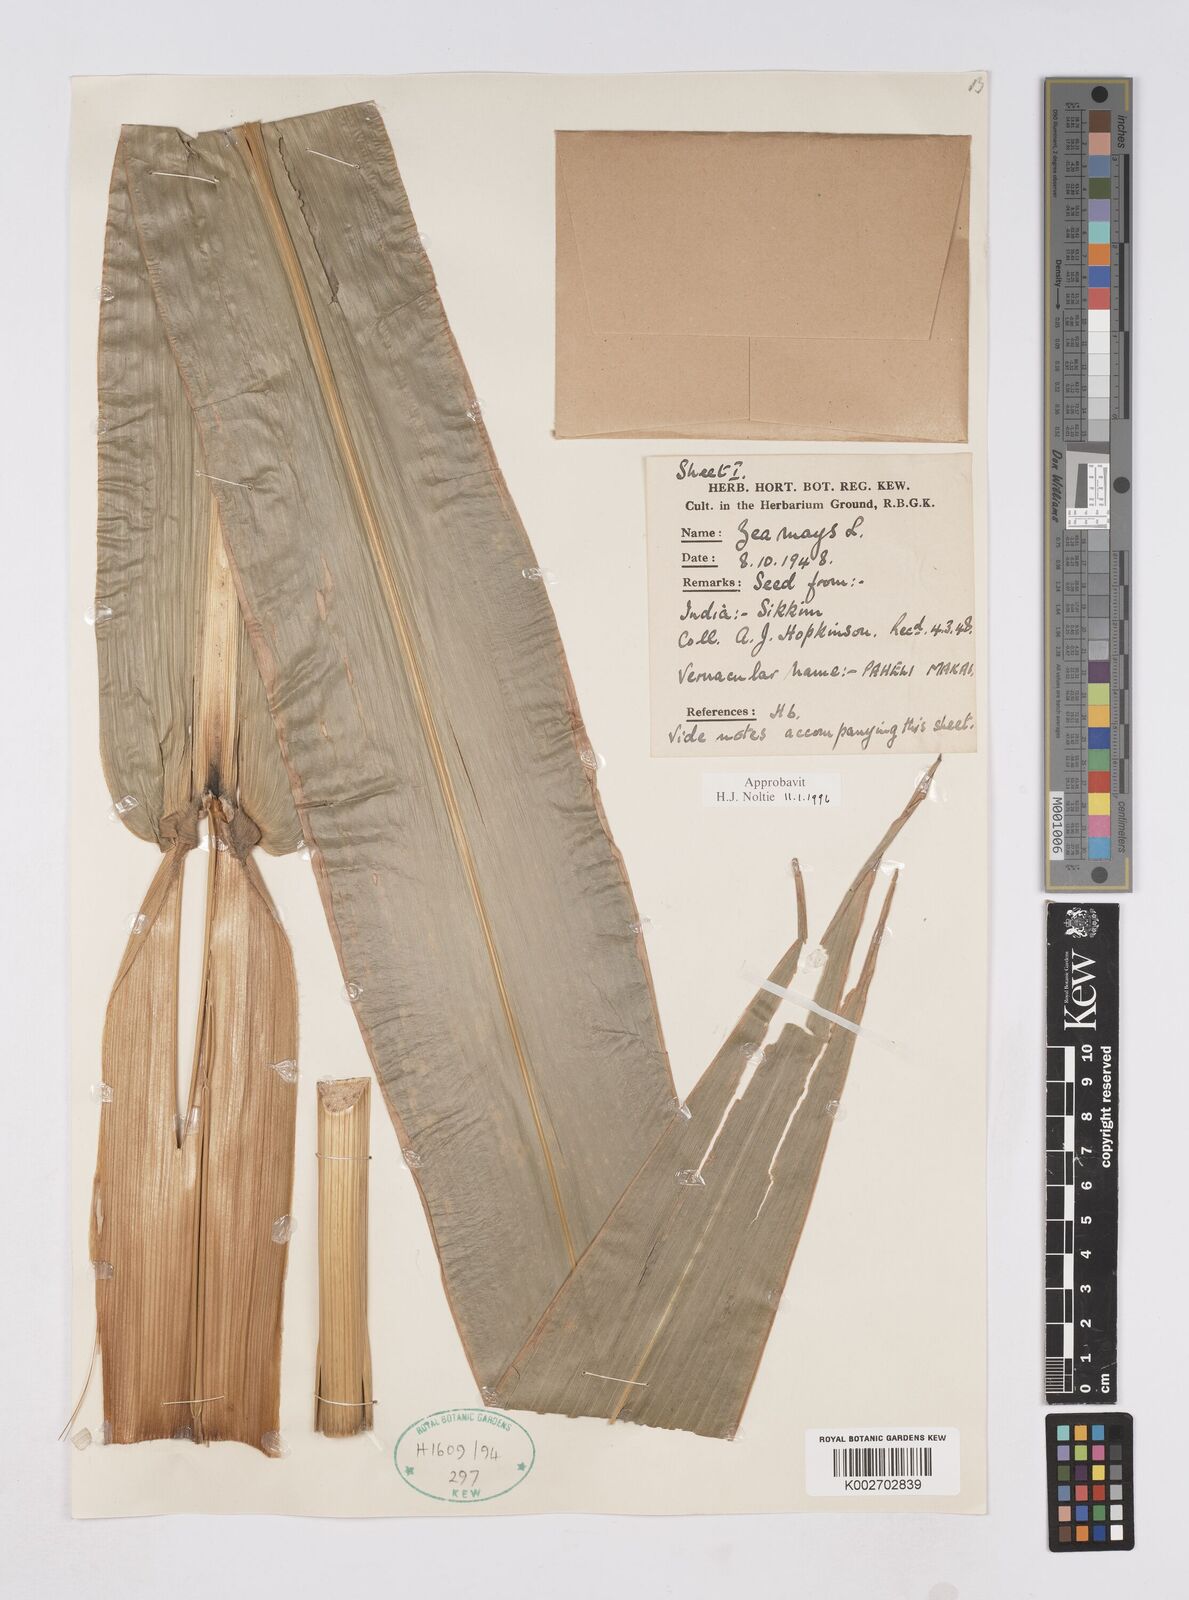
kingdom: Plantae
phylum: Tracheophyta
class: Liliopsida
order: Poales
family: Poaceae
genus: Zea
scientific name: Zea mays
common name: Maize
